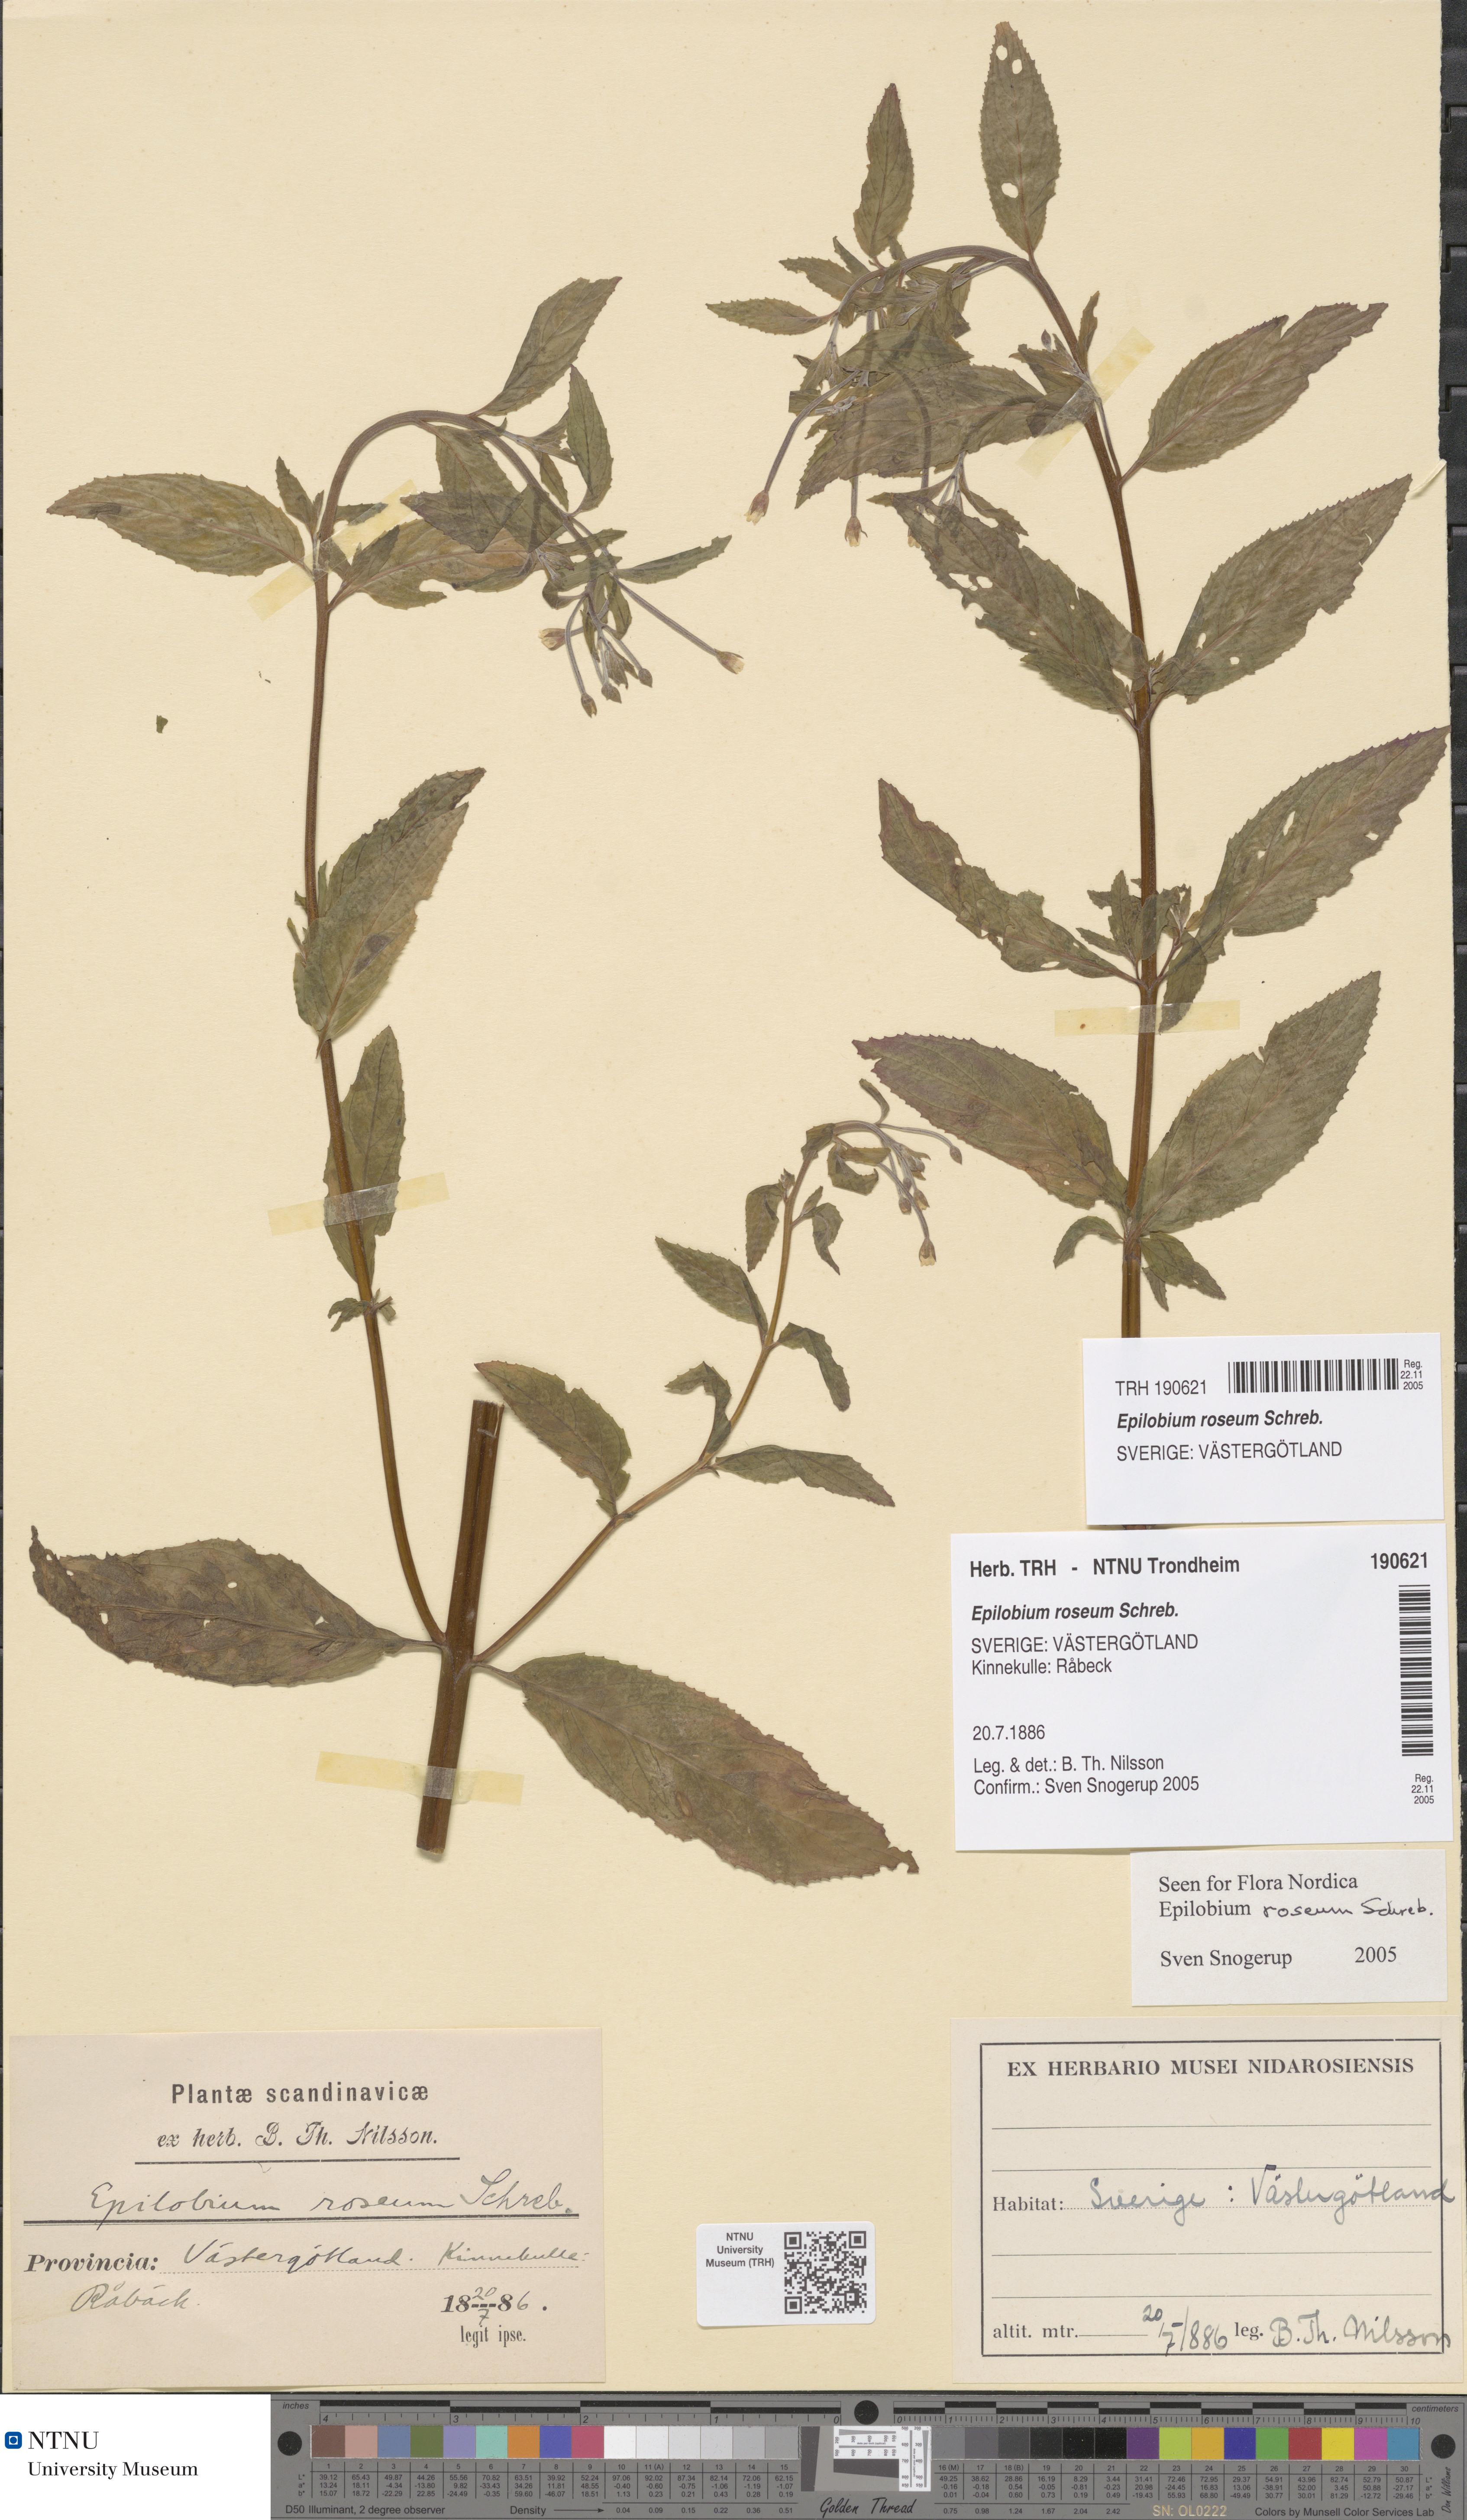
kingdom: Plantae
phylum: Tracheophyta
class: Magnoliopsida
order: Myrtales
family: Onagraceae
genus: Epilobium
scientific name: Epilobium roseum
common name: Pale willowherb
